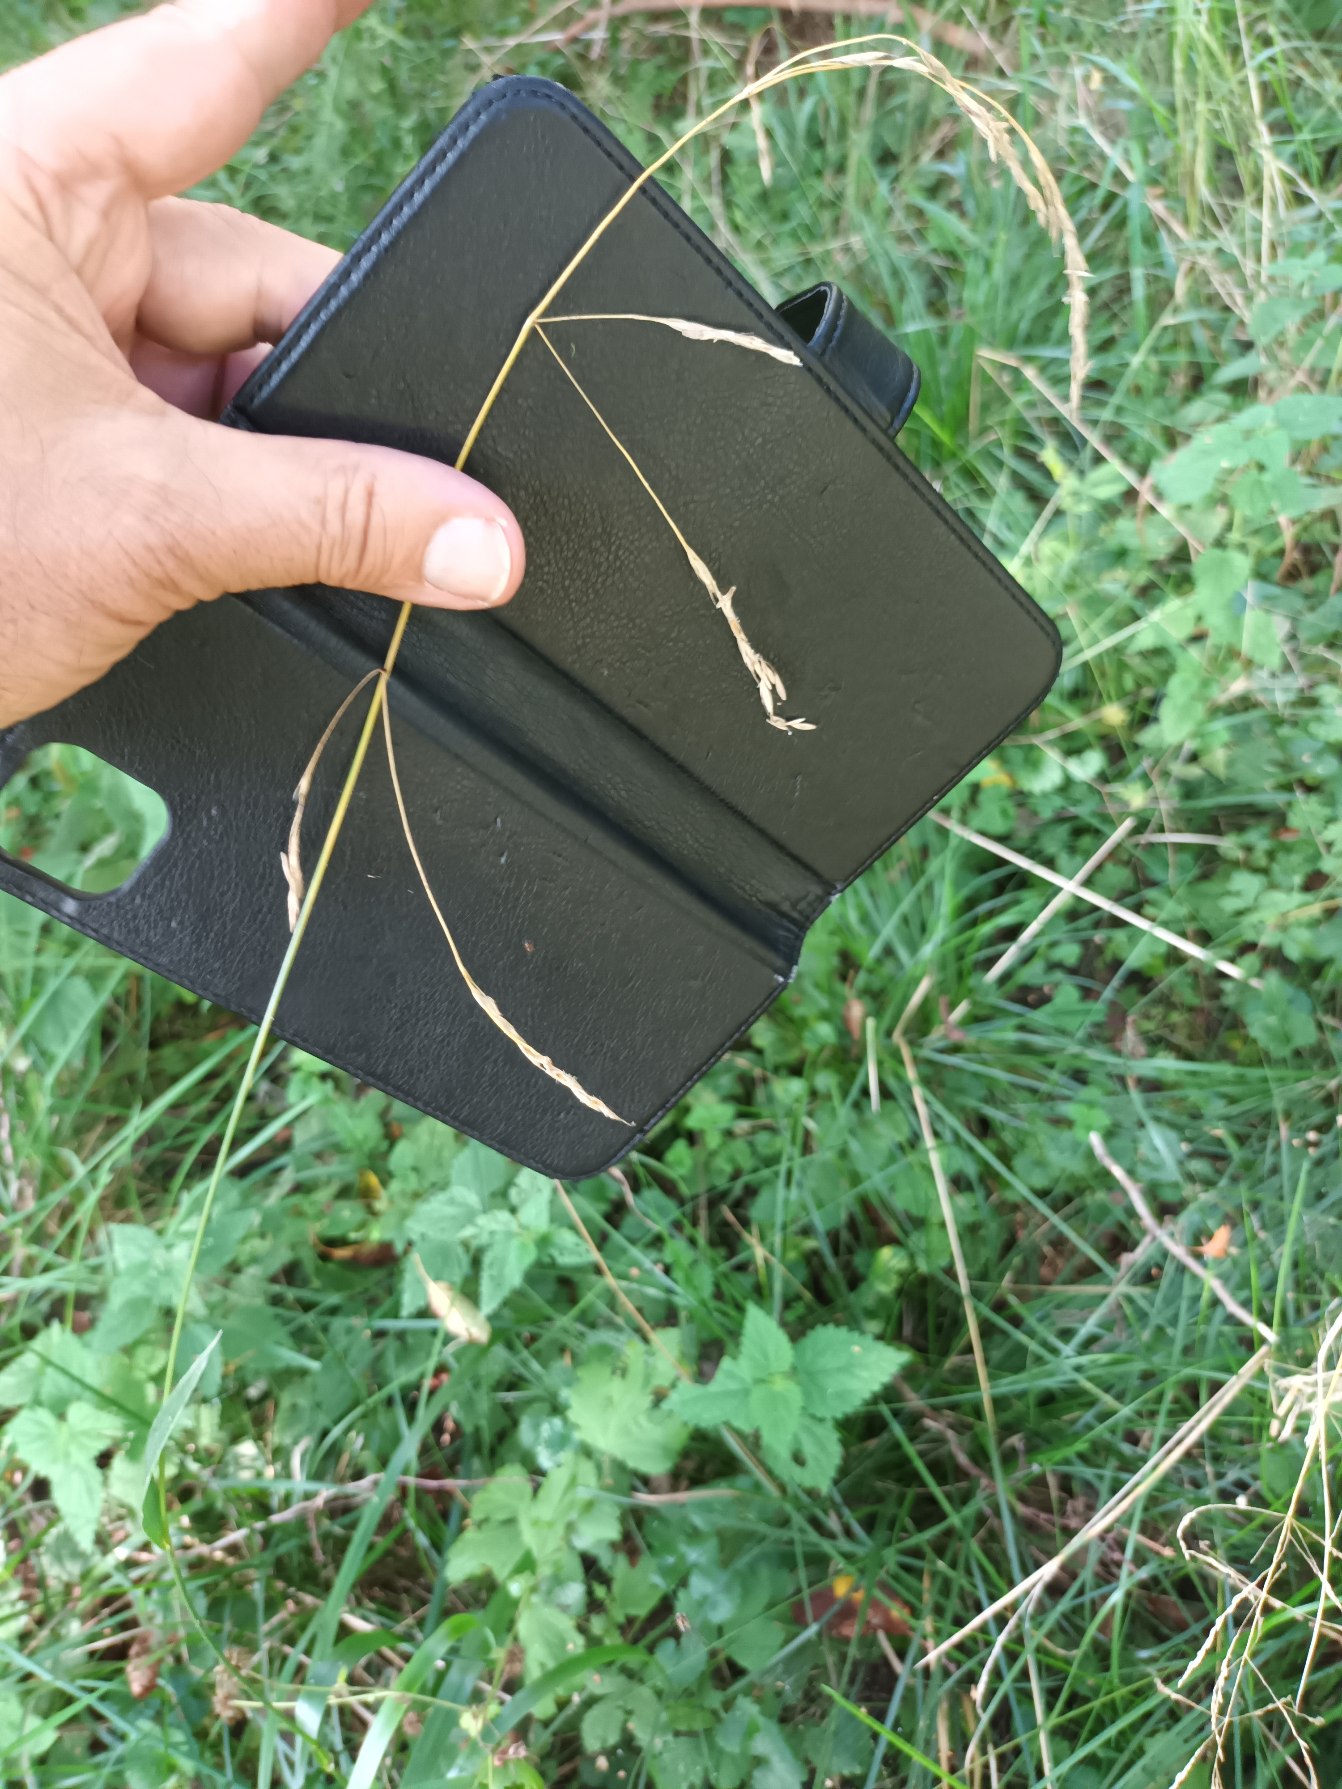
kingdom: Plantae
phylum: Tracheophyta
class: Liliopsida
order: Poales
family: Poaceae
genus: Lolium
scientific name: Lolium giganteum
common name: Kæmpe-svingel
